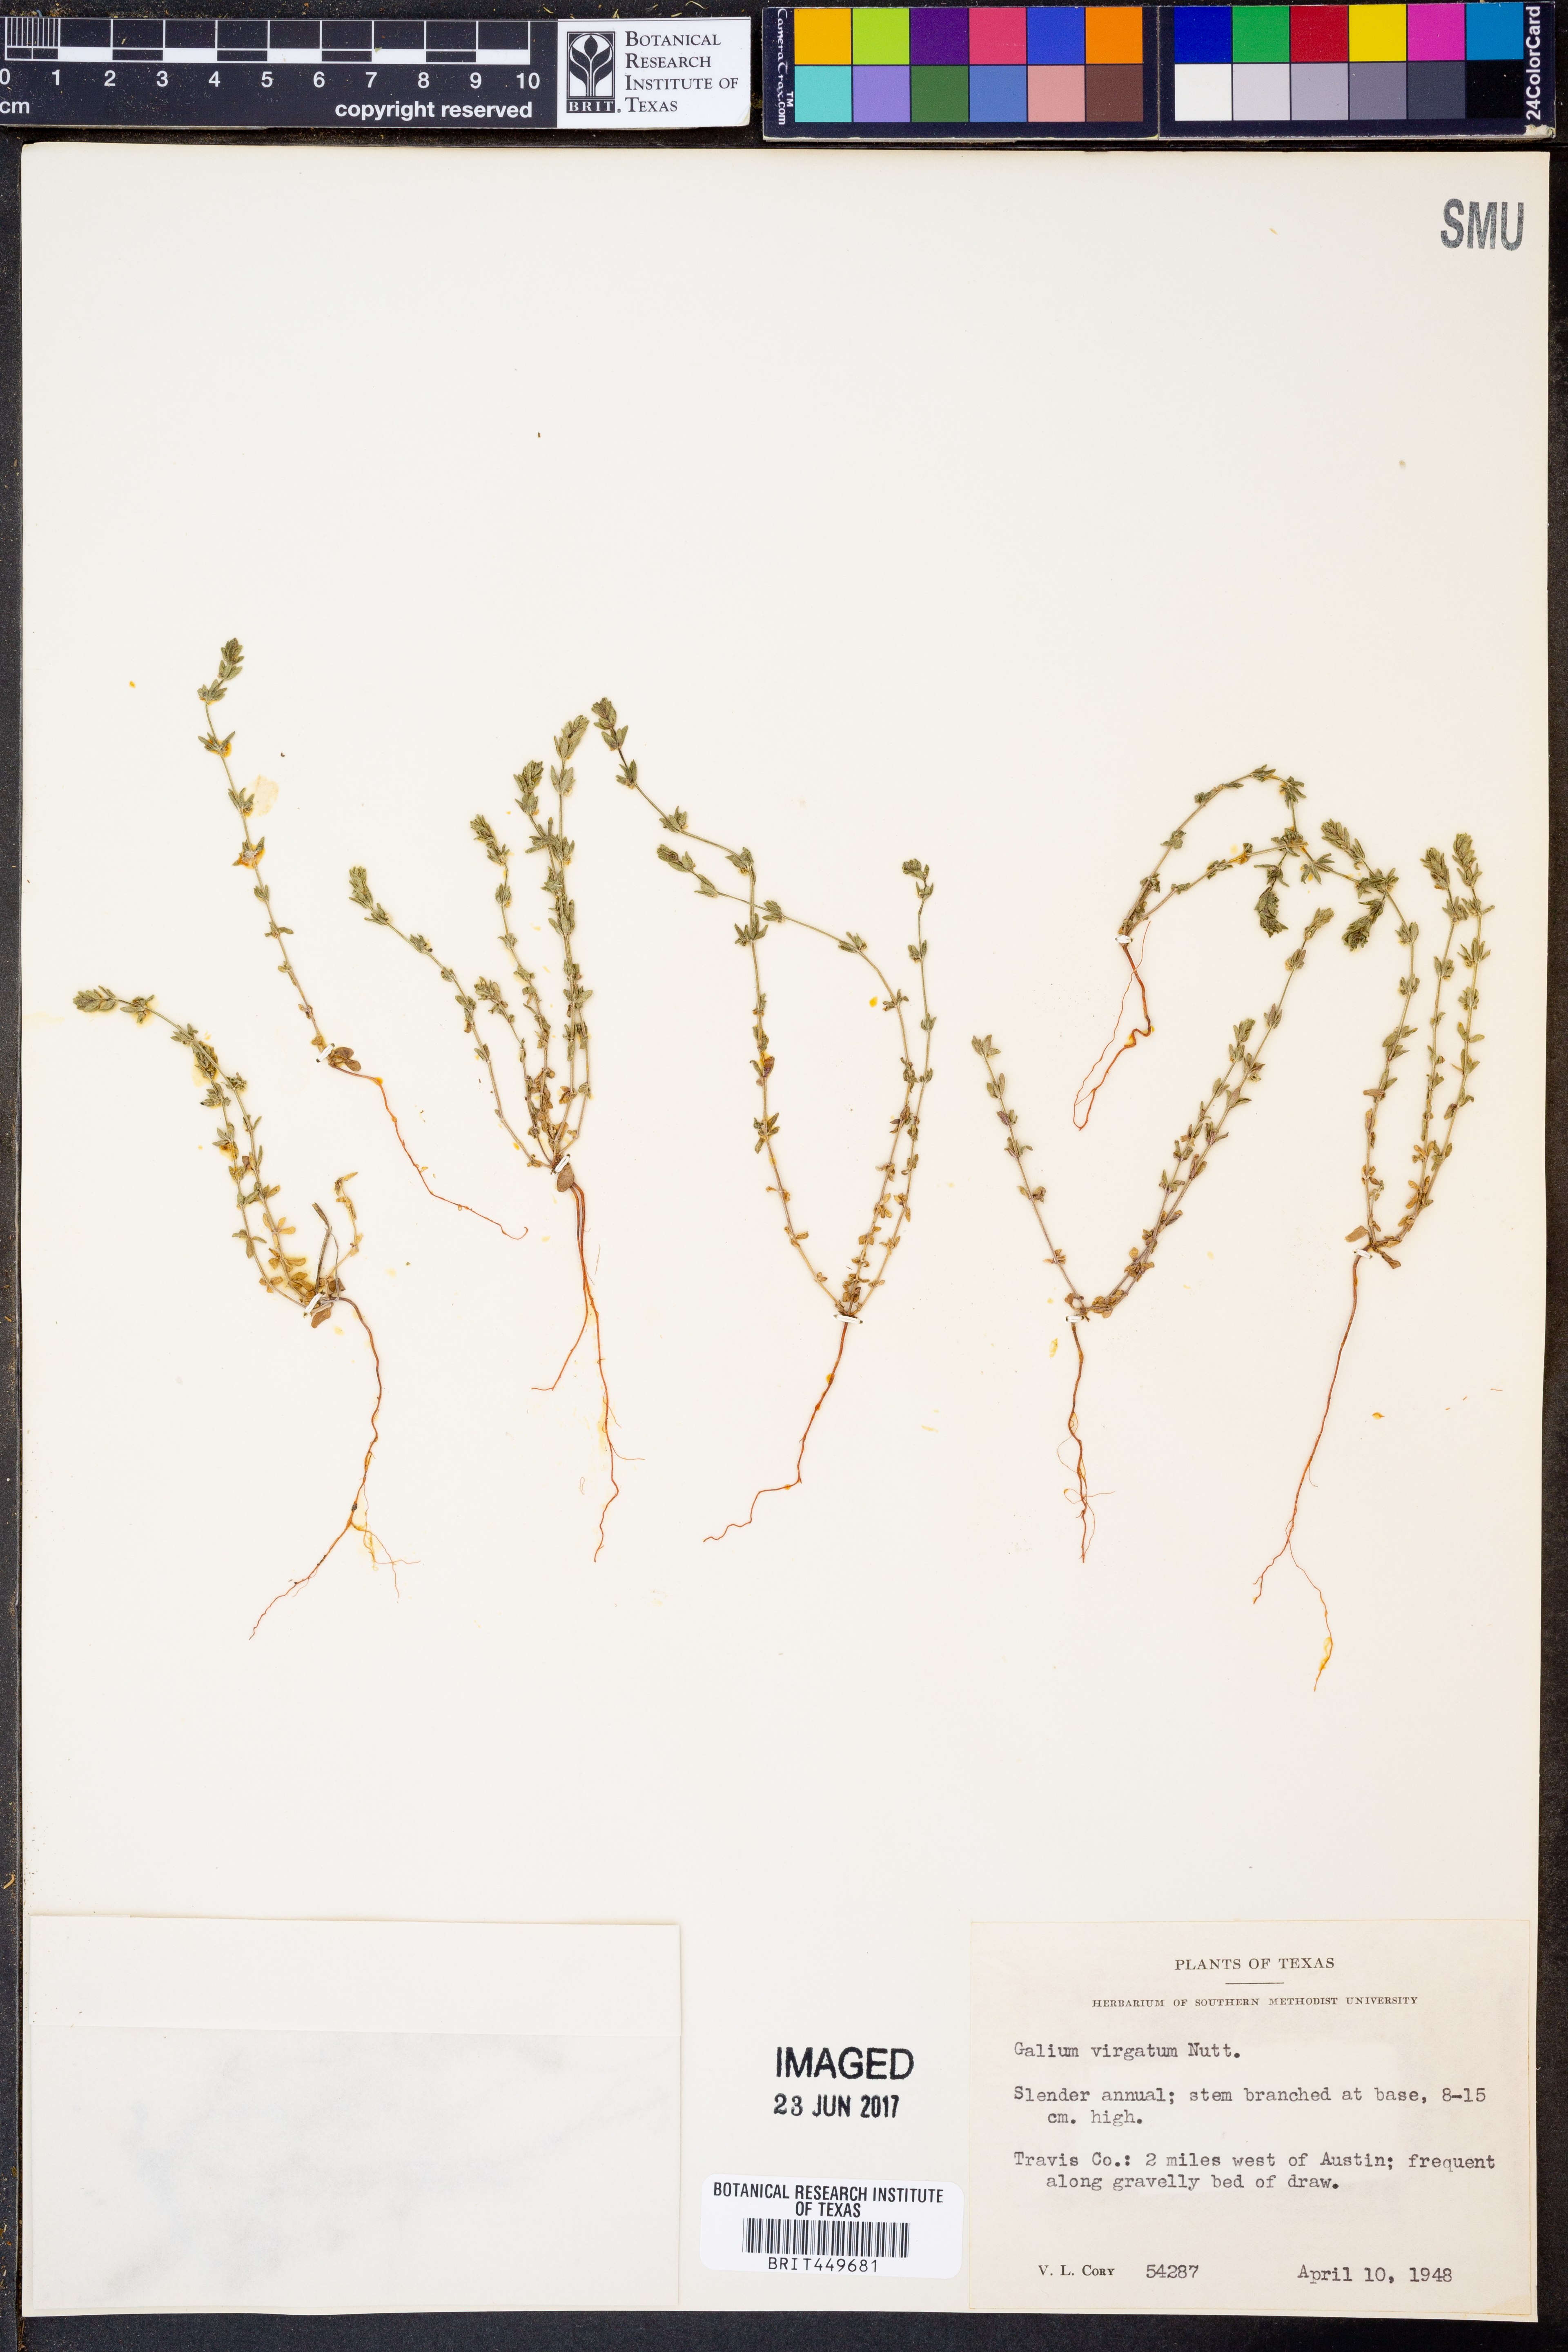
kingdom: Plantae
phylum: Tracheophyta
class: Magnoliopsida
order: Gentianales
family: Rubiaceae
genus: Galium
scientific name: Galium virgatum
